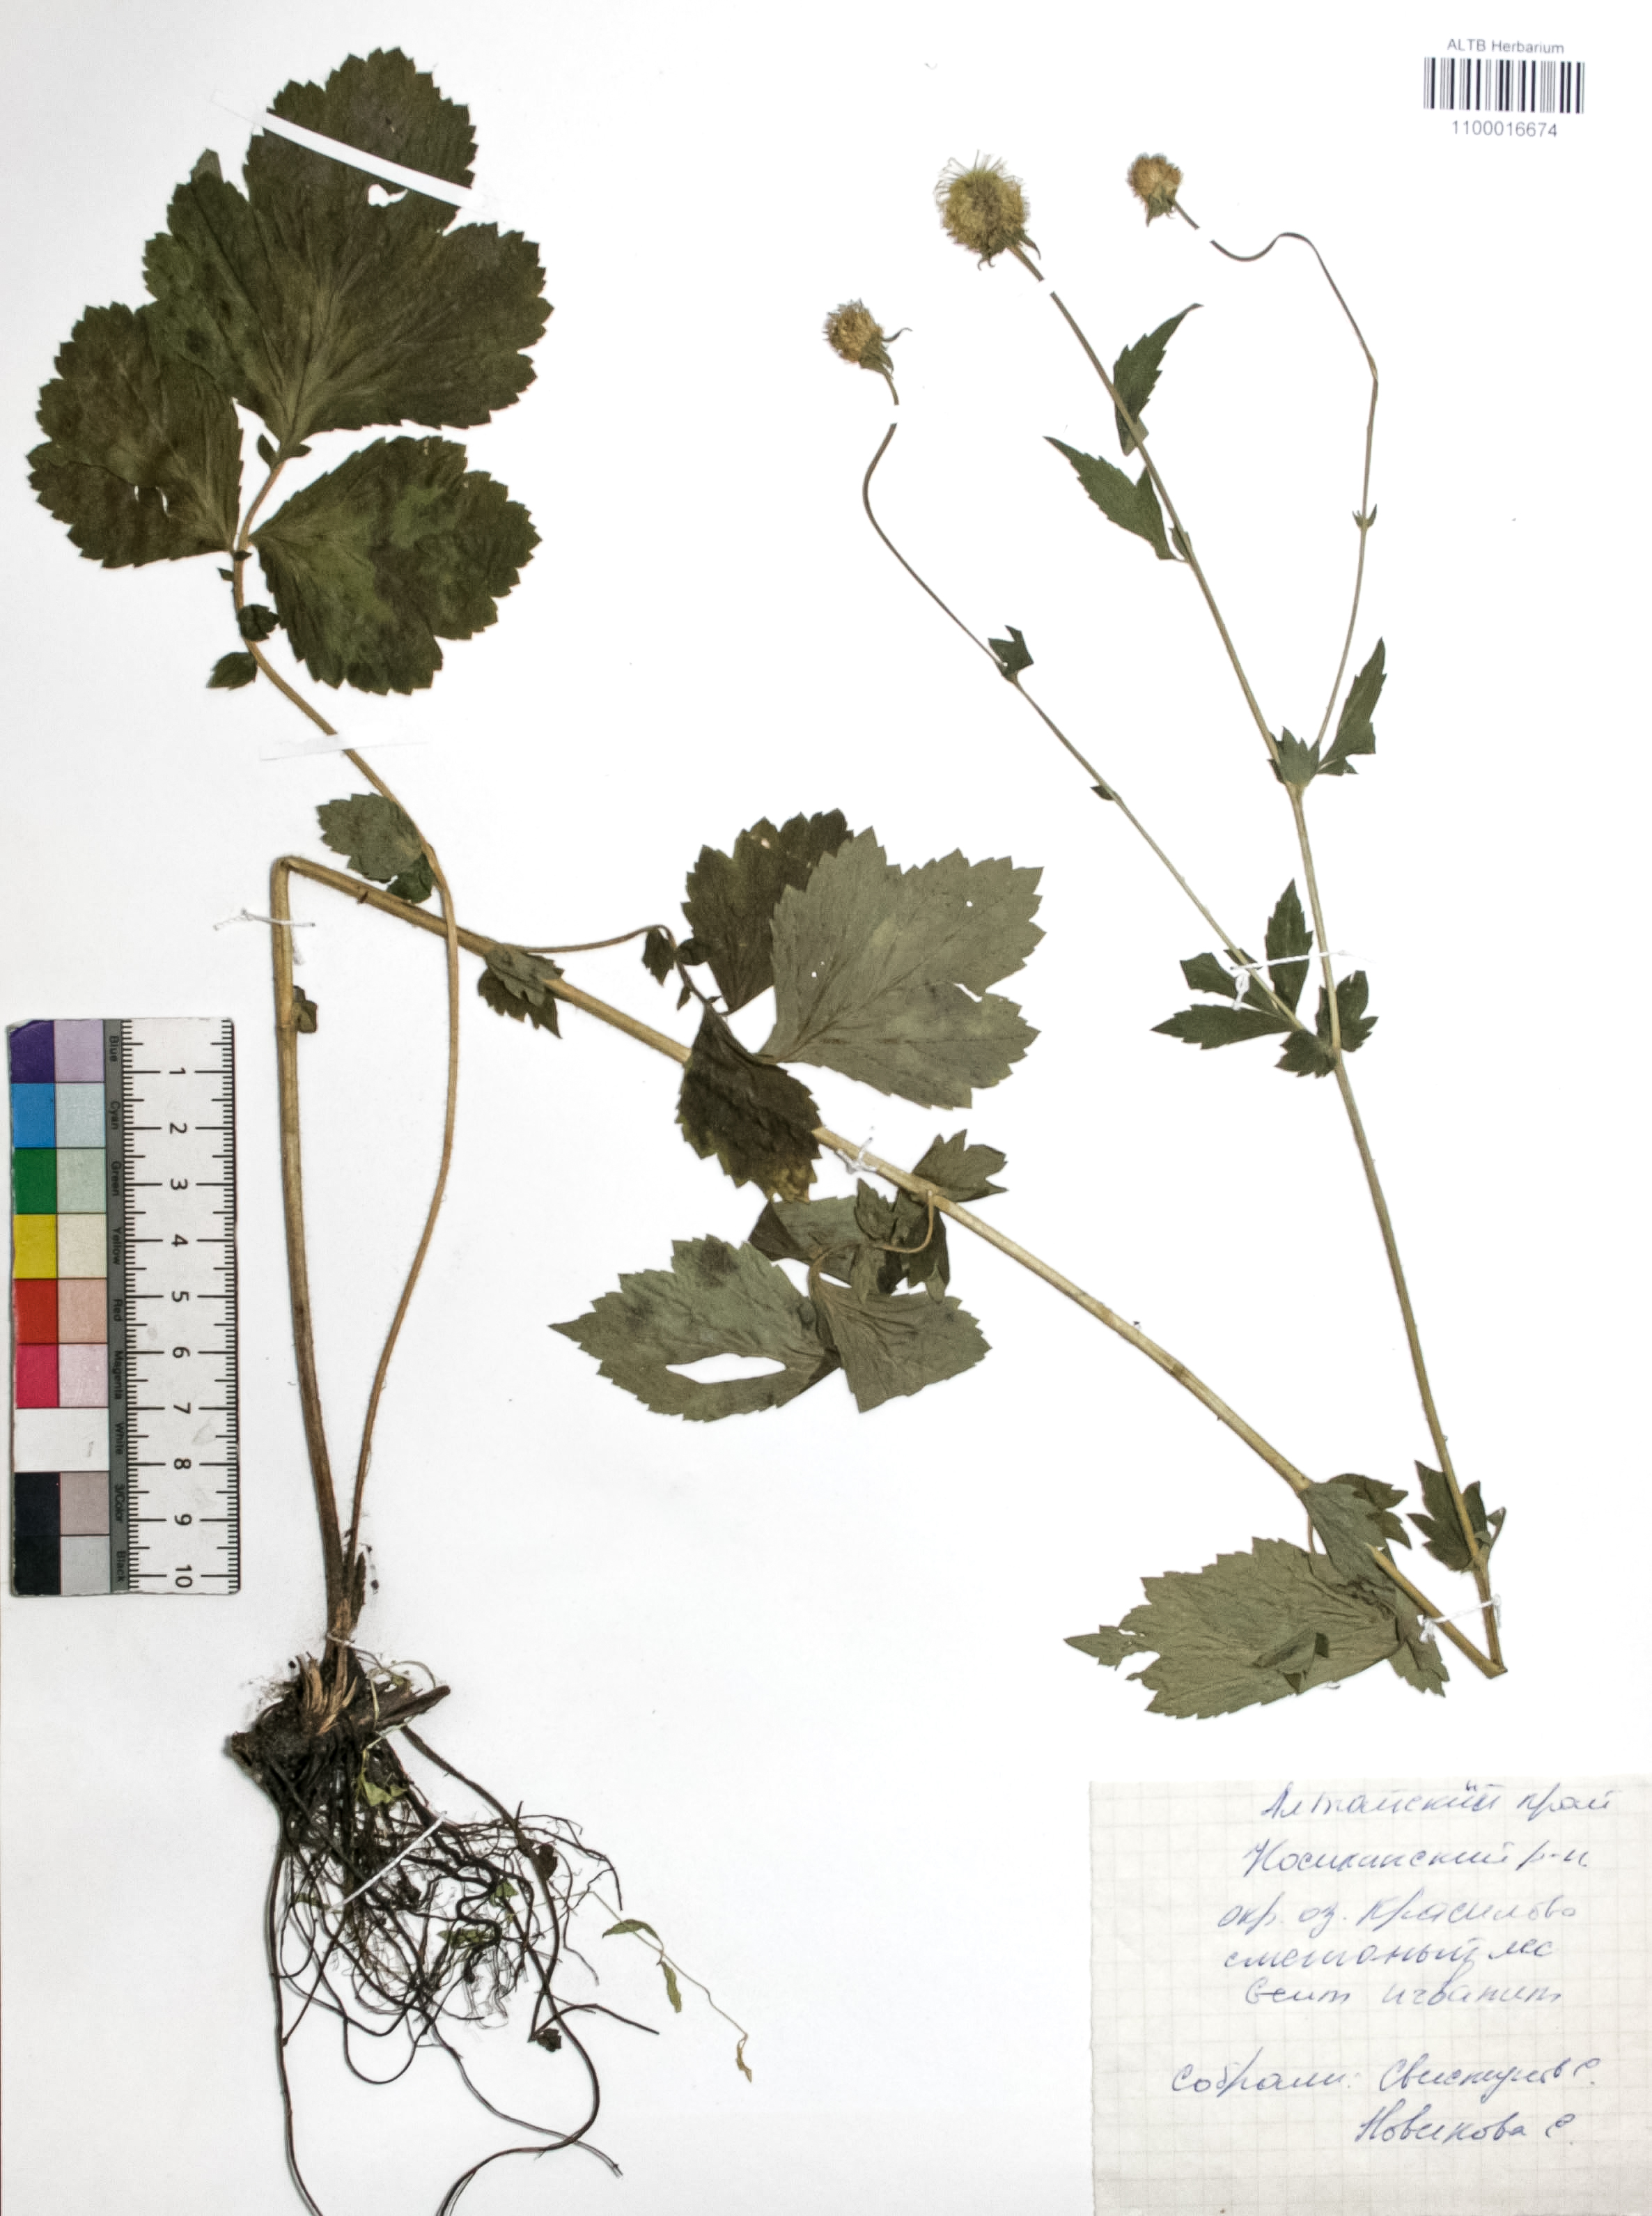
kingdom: Plantae
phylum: Tracheophyta
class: Magnoliopsida
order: Rosales
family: Rosaceae
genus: Geum
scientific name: Geum urbanum
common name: Wood avens
